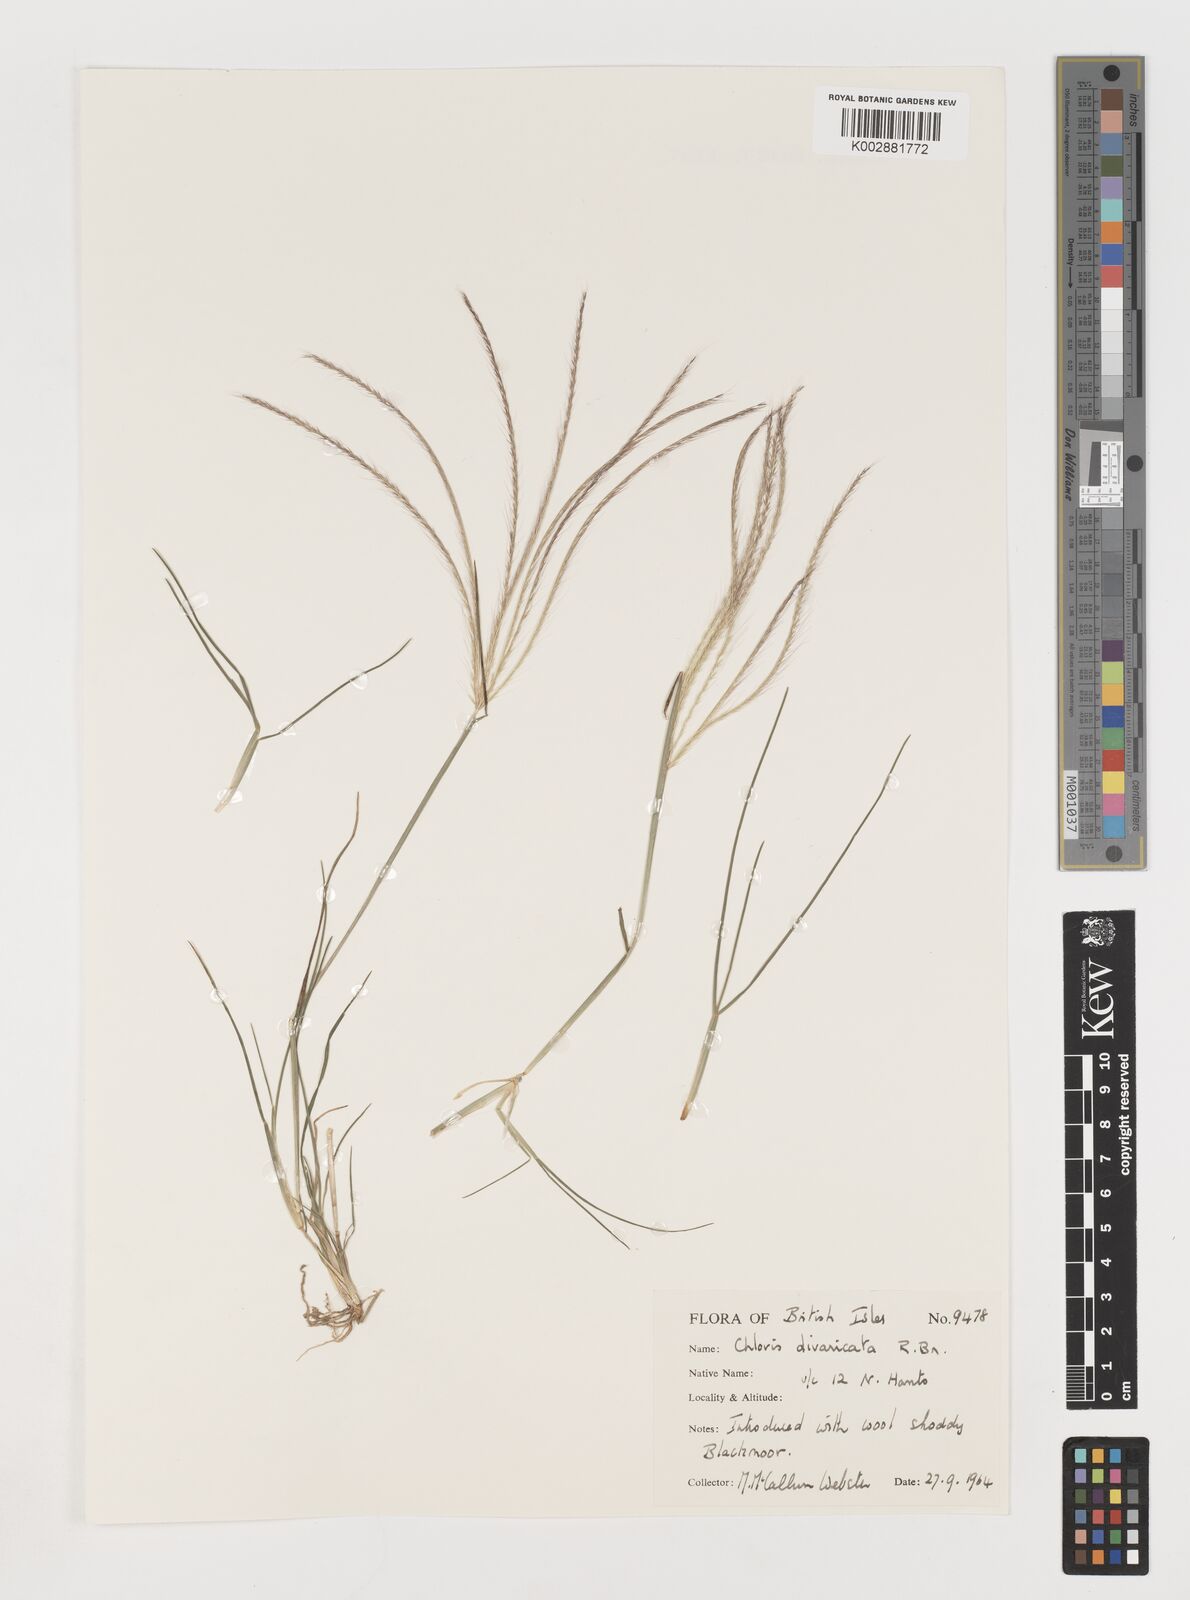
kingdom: Plantae
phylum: Tracheophyta
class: Liliopsida
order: Poales
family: Poaceae
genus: Chloris
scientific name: Chloris divaricata
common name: Spreading windmill grass
